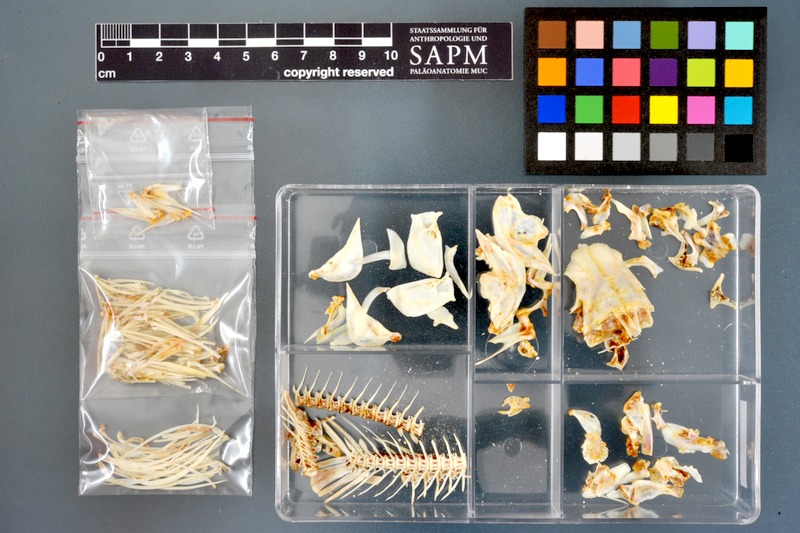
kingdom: Animalia
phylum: Chordata
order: Cypriniformes
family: Cyprinidae
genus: Labeo
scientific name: Labeo coubie
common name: African carp
